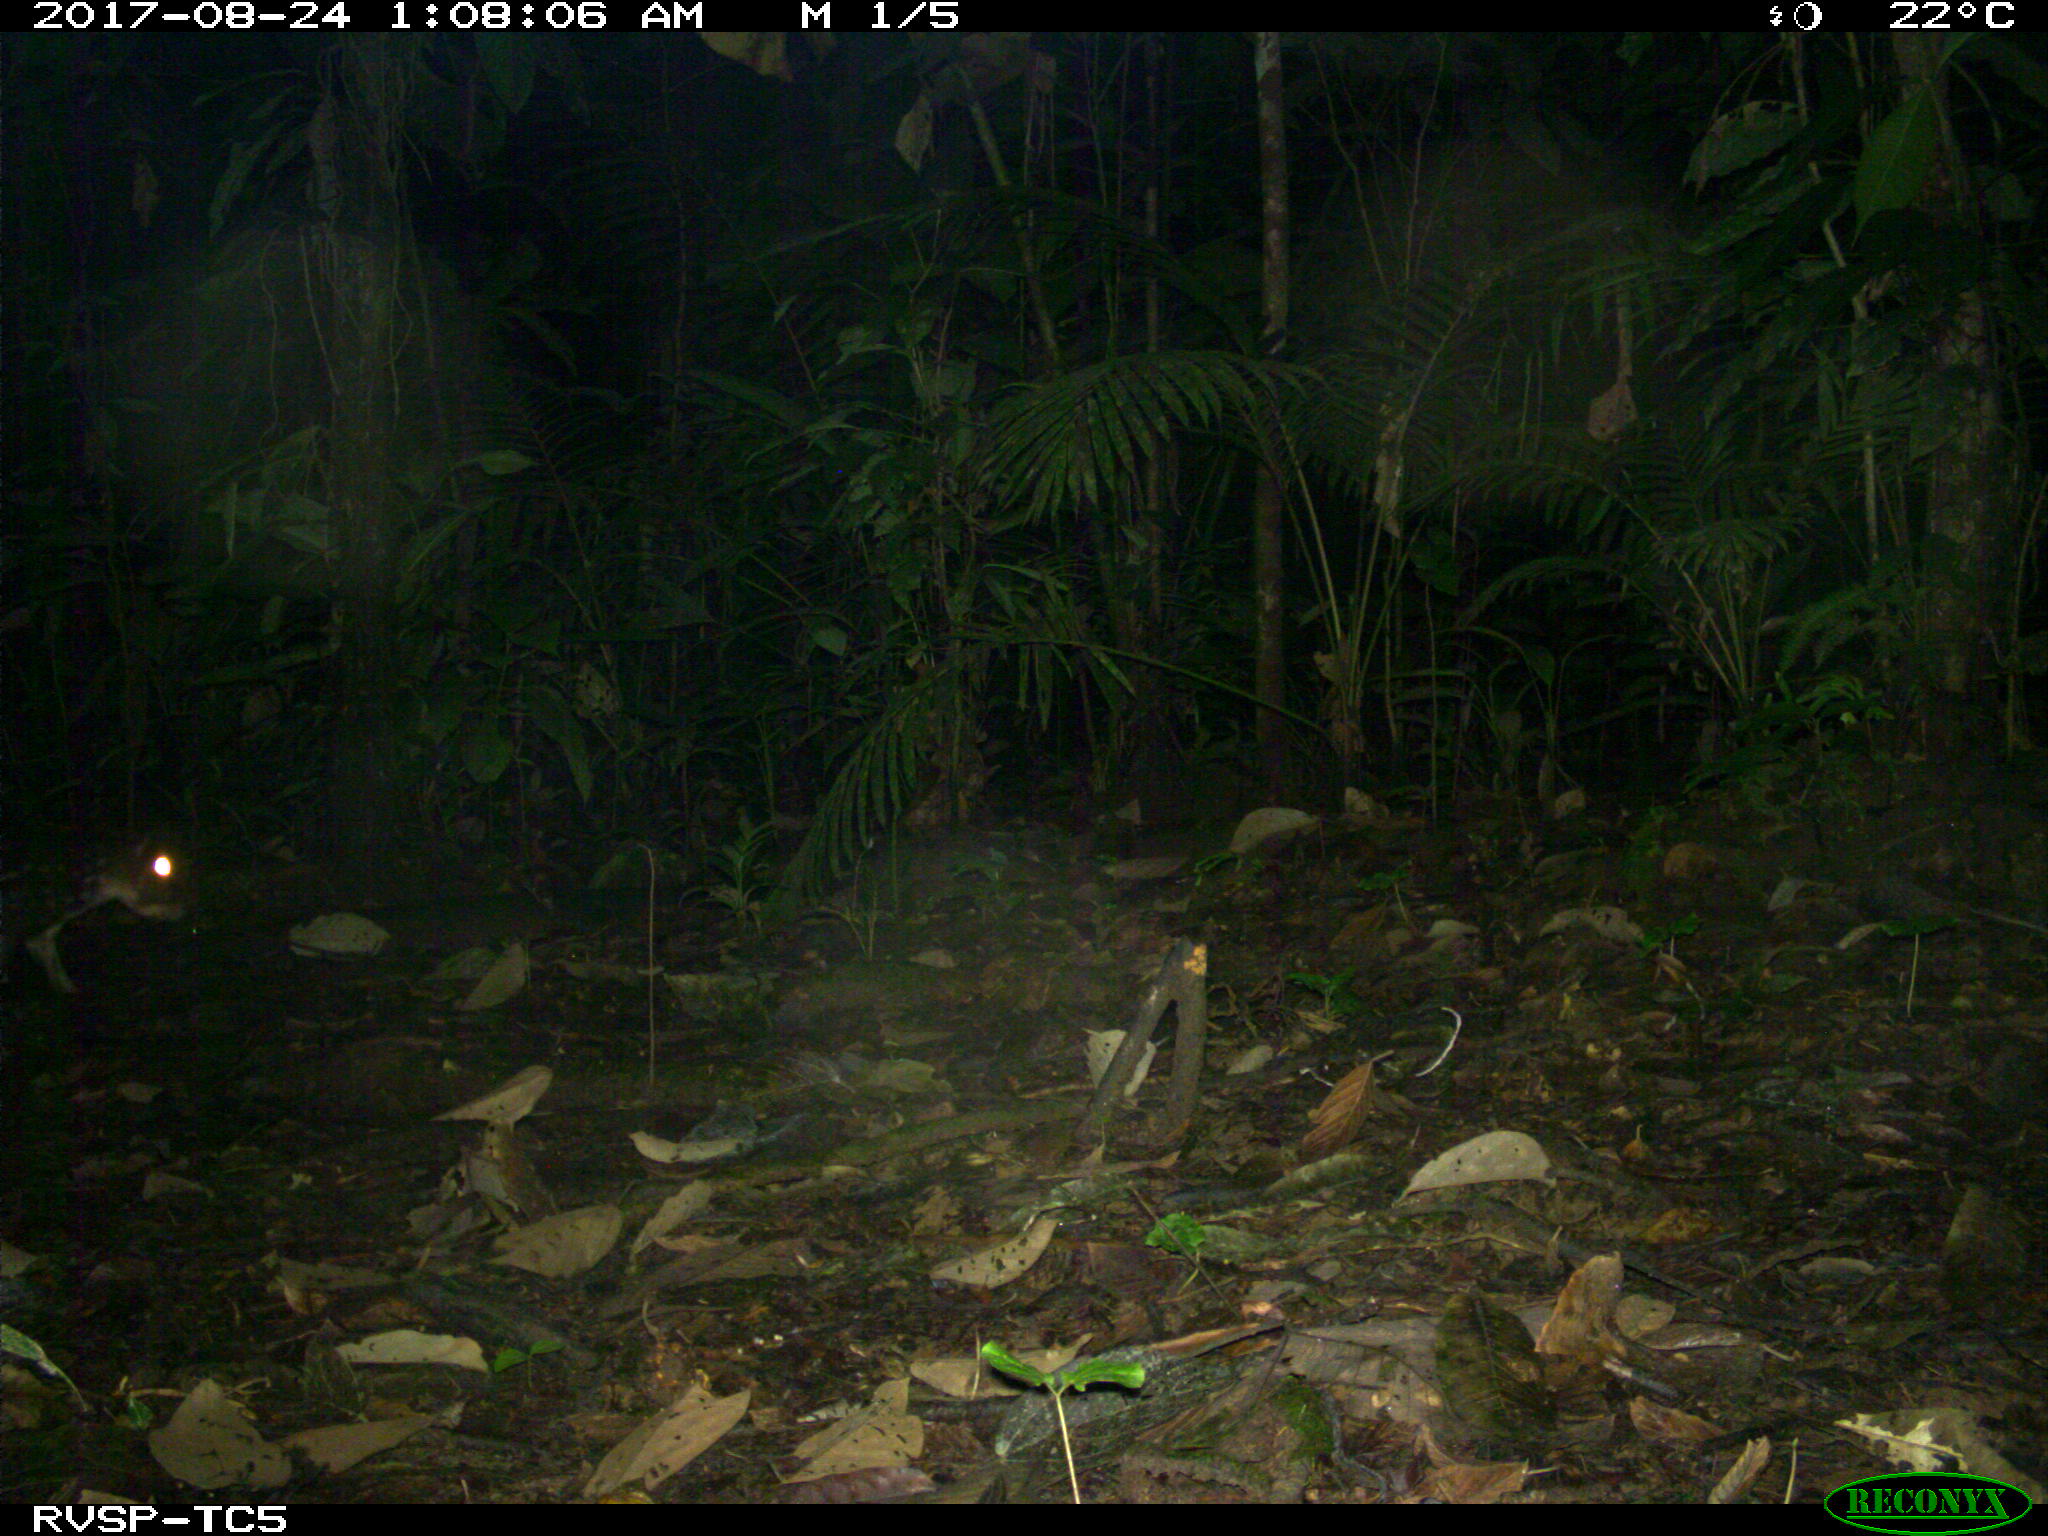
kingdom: Animalia
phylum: Chordata
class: Mammalia
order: Rodentia
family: Cuniculidae
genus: Cuniculus
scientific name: Cuniculus paca
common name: Lowland paca
